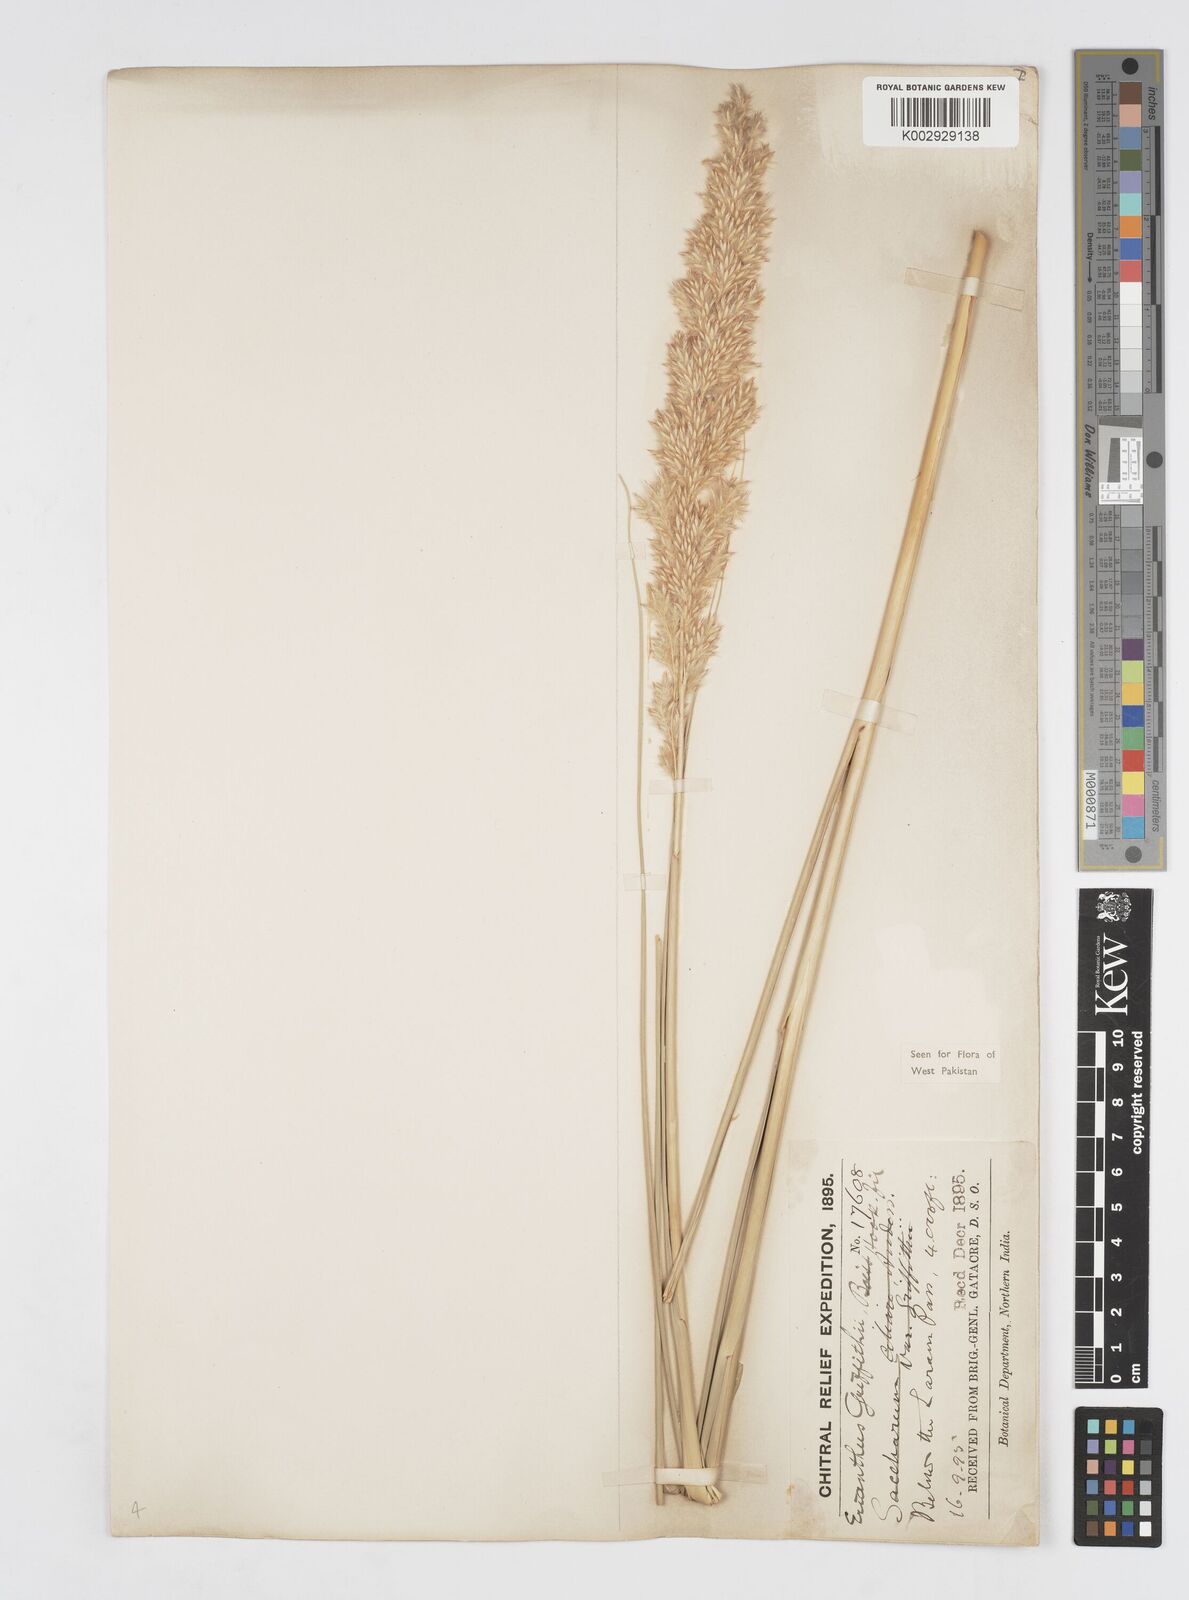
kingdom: Plantae
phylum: Tracheophyta
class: Liliopsida
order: Poales
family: Poaceae
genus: Saccharum
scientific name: Saccharum griffithii
